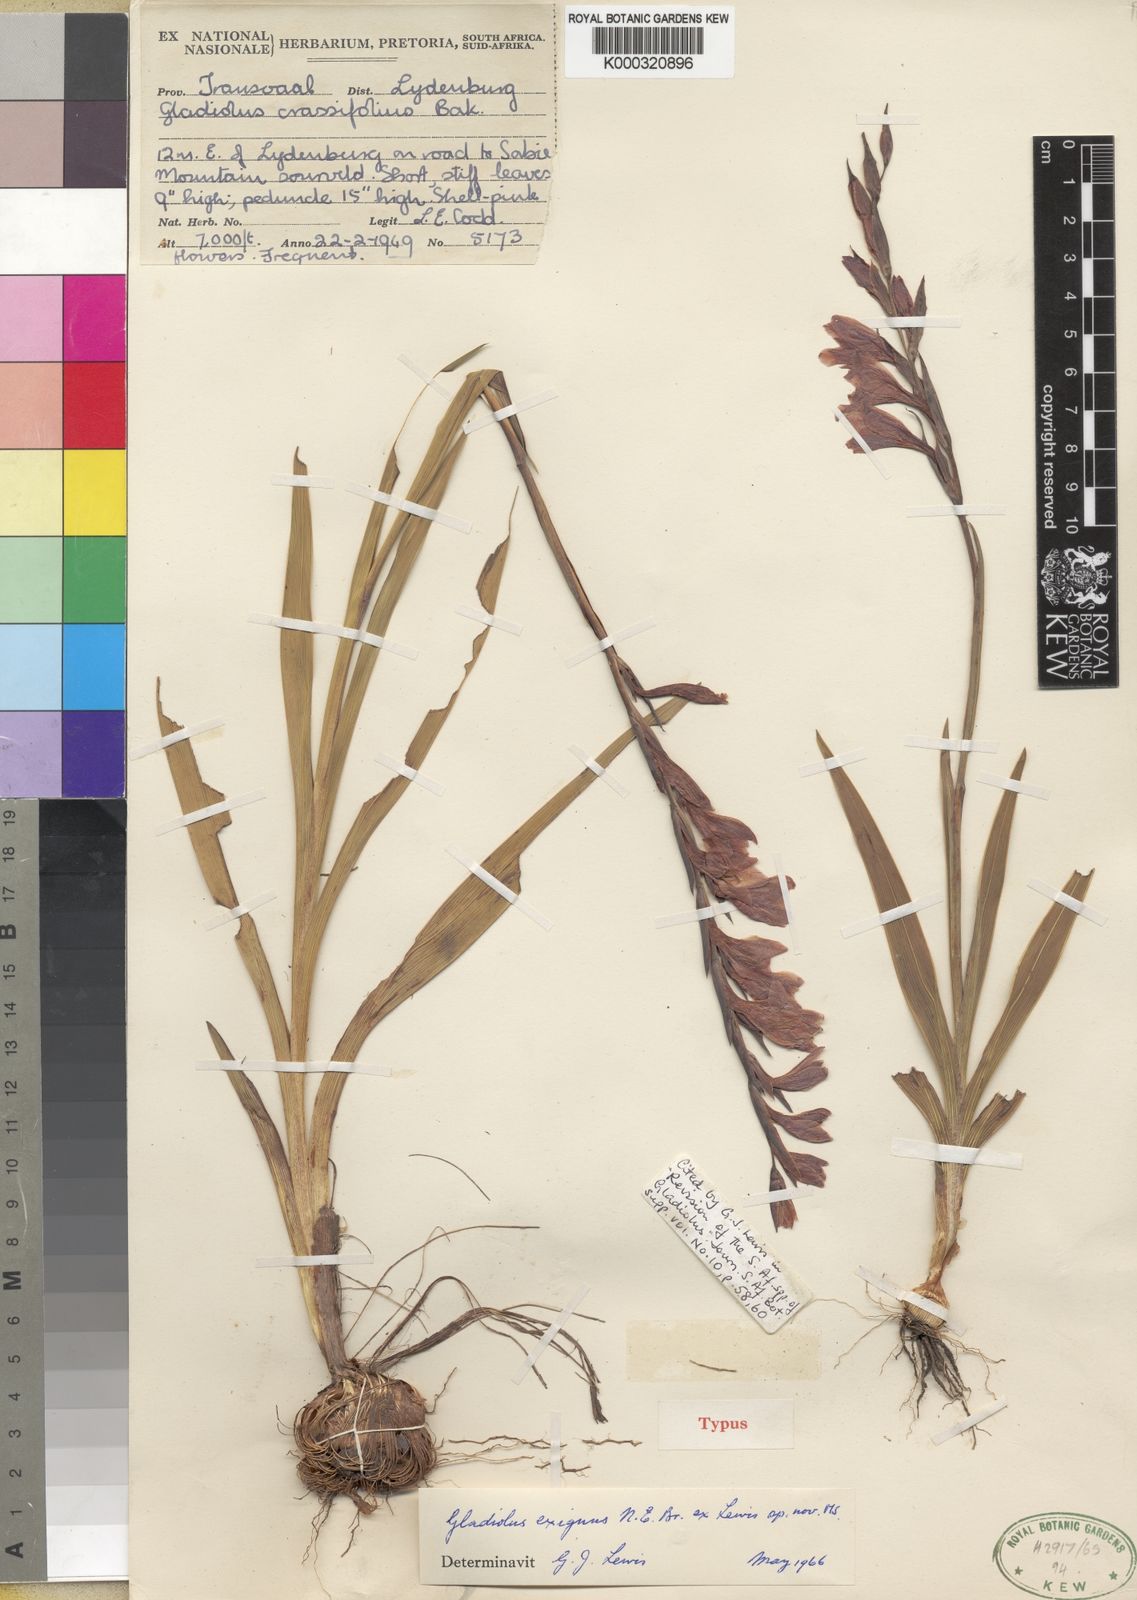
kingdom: Plantae
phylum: Tracheophyta
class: Liliopsida
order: Asparagales
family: Iridaceae
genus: Gladiolus
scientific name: Gladiolus exiguus
